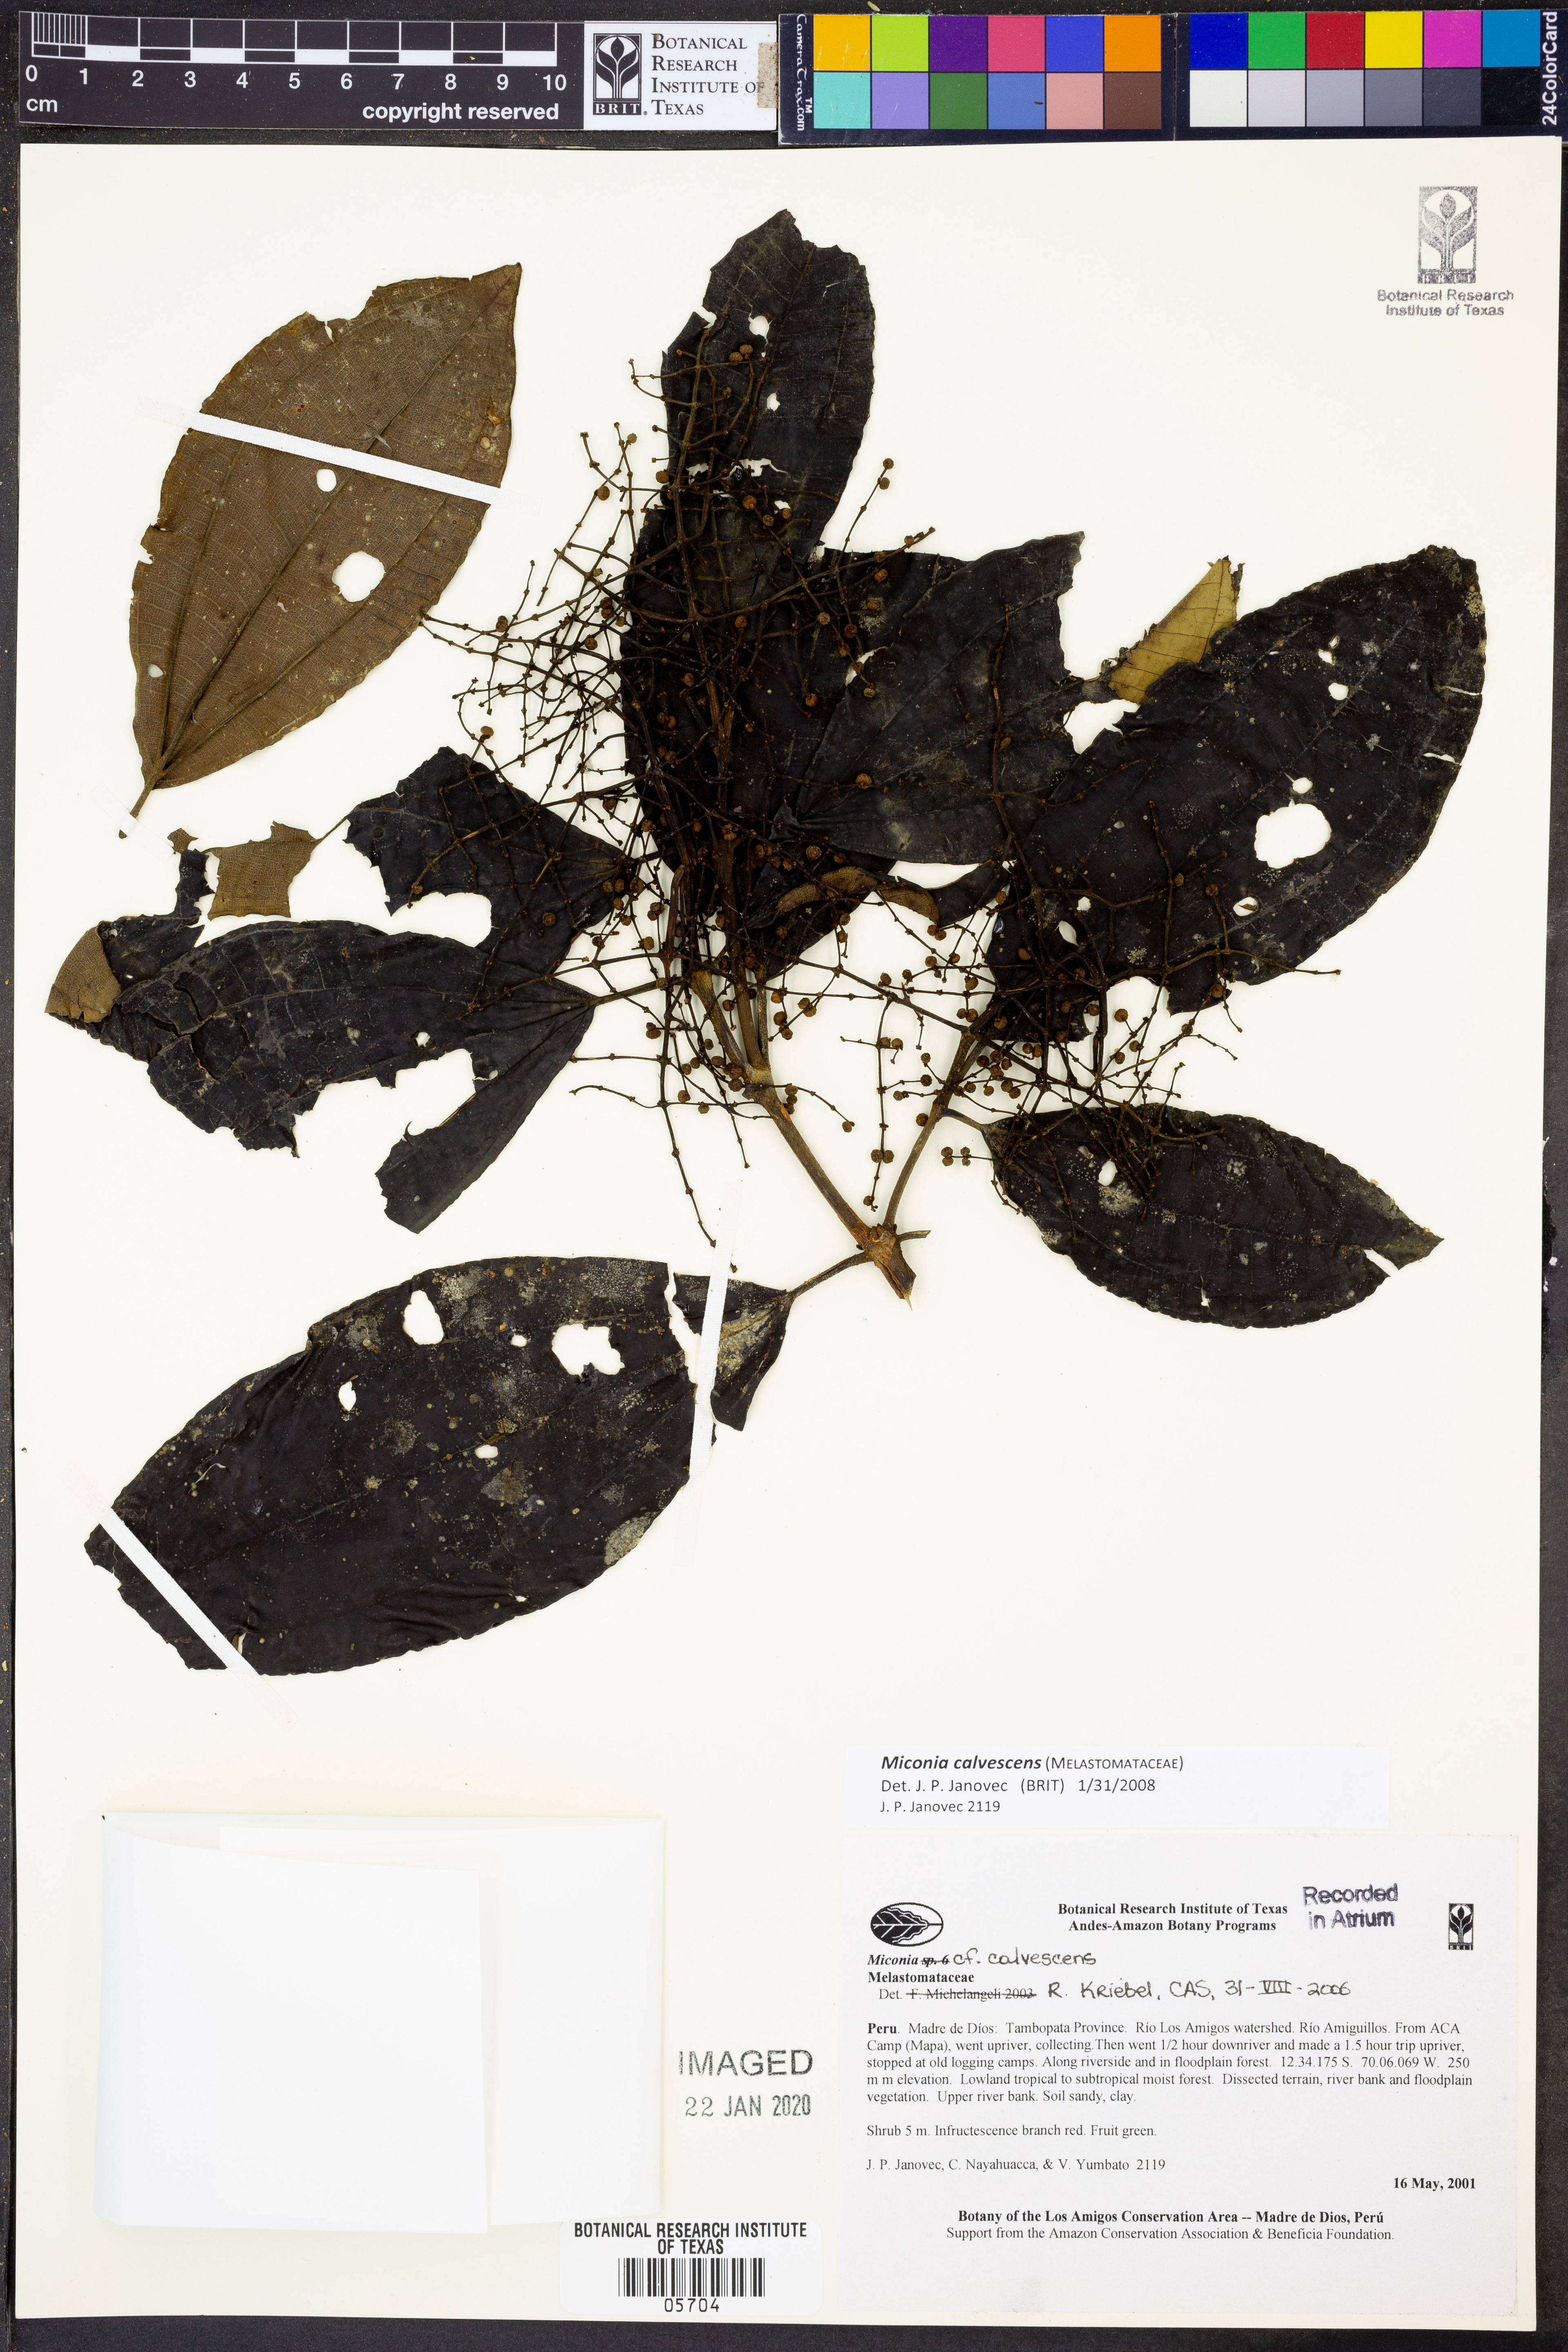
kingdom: Plantae
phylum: Tracheophyta
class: Magnoliopsida
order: Myrtales
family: Melastomataceae
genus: Miconia
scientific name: Miconia calvescens
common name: Purple plague
